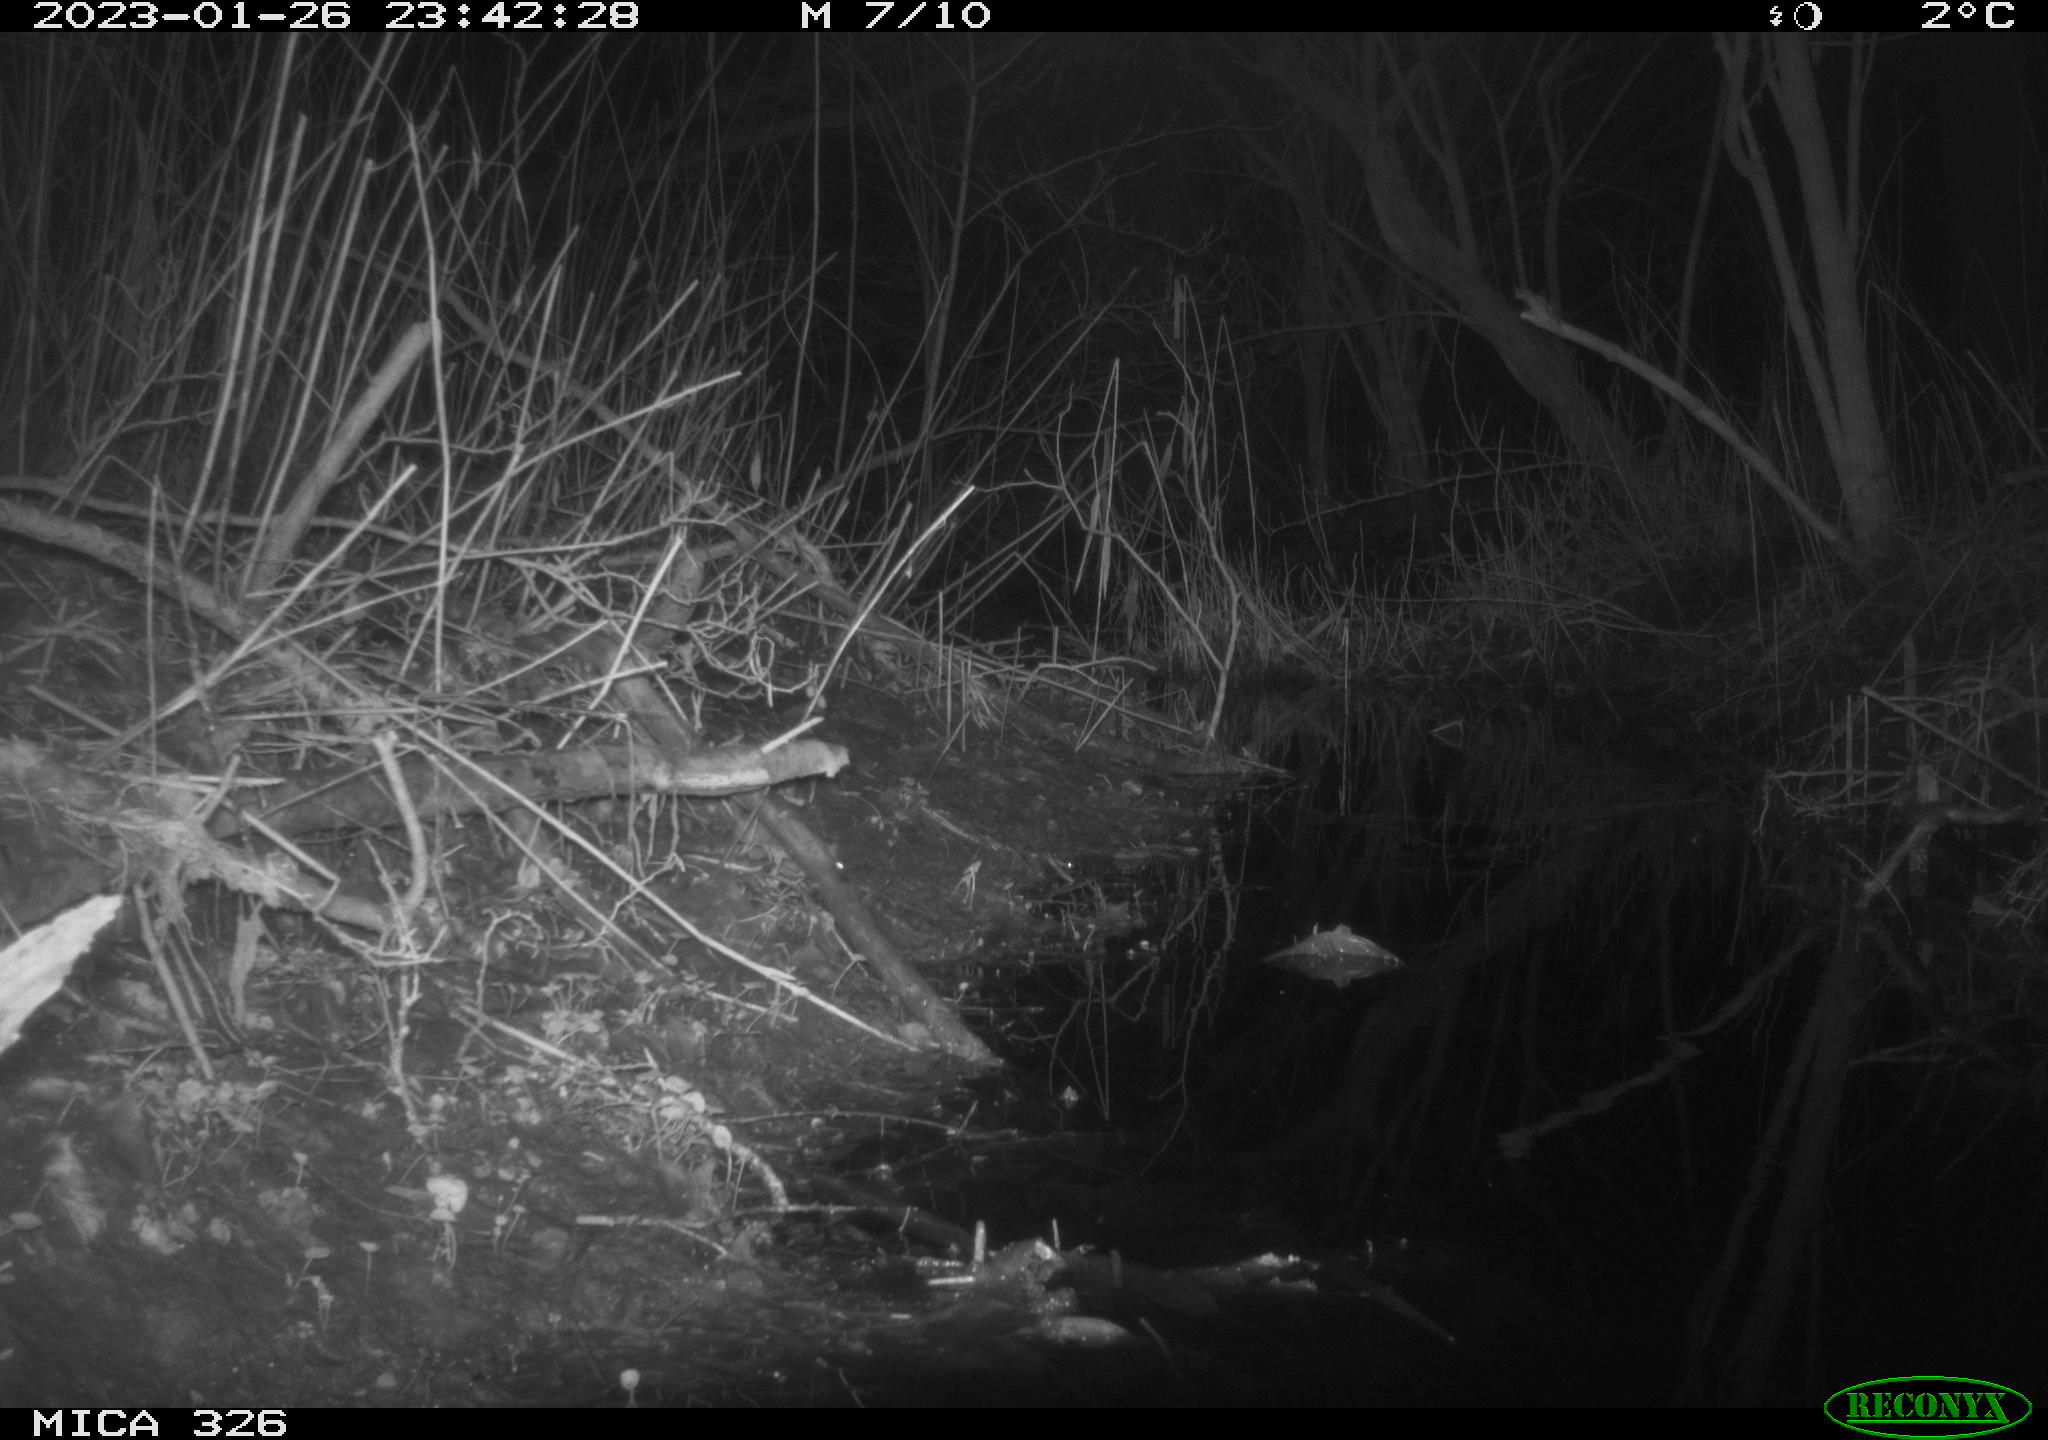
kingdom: Animalia
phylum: Chordata
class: Mammalia
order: Rodentia
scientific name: Rodentia
